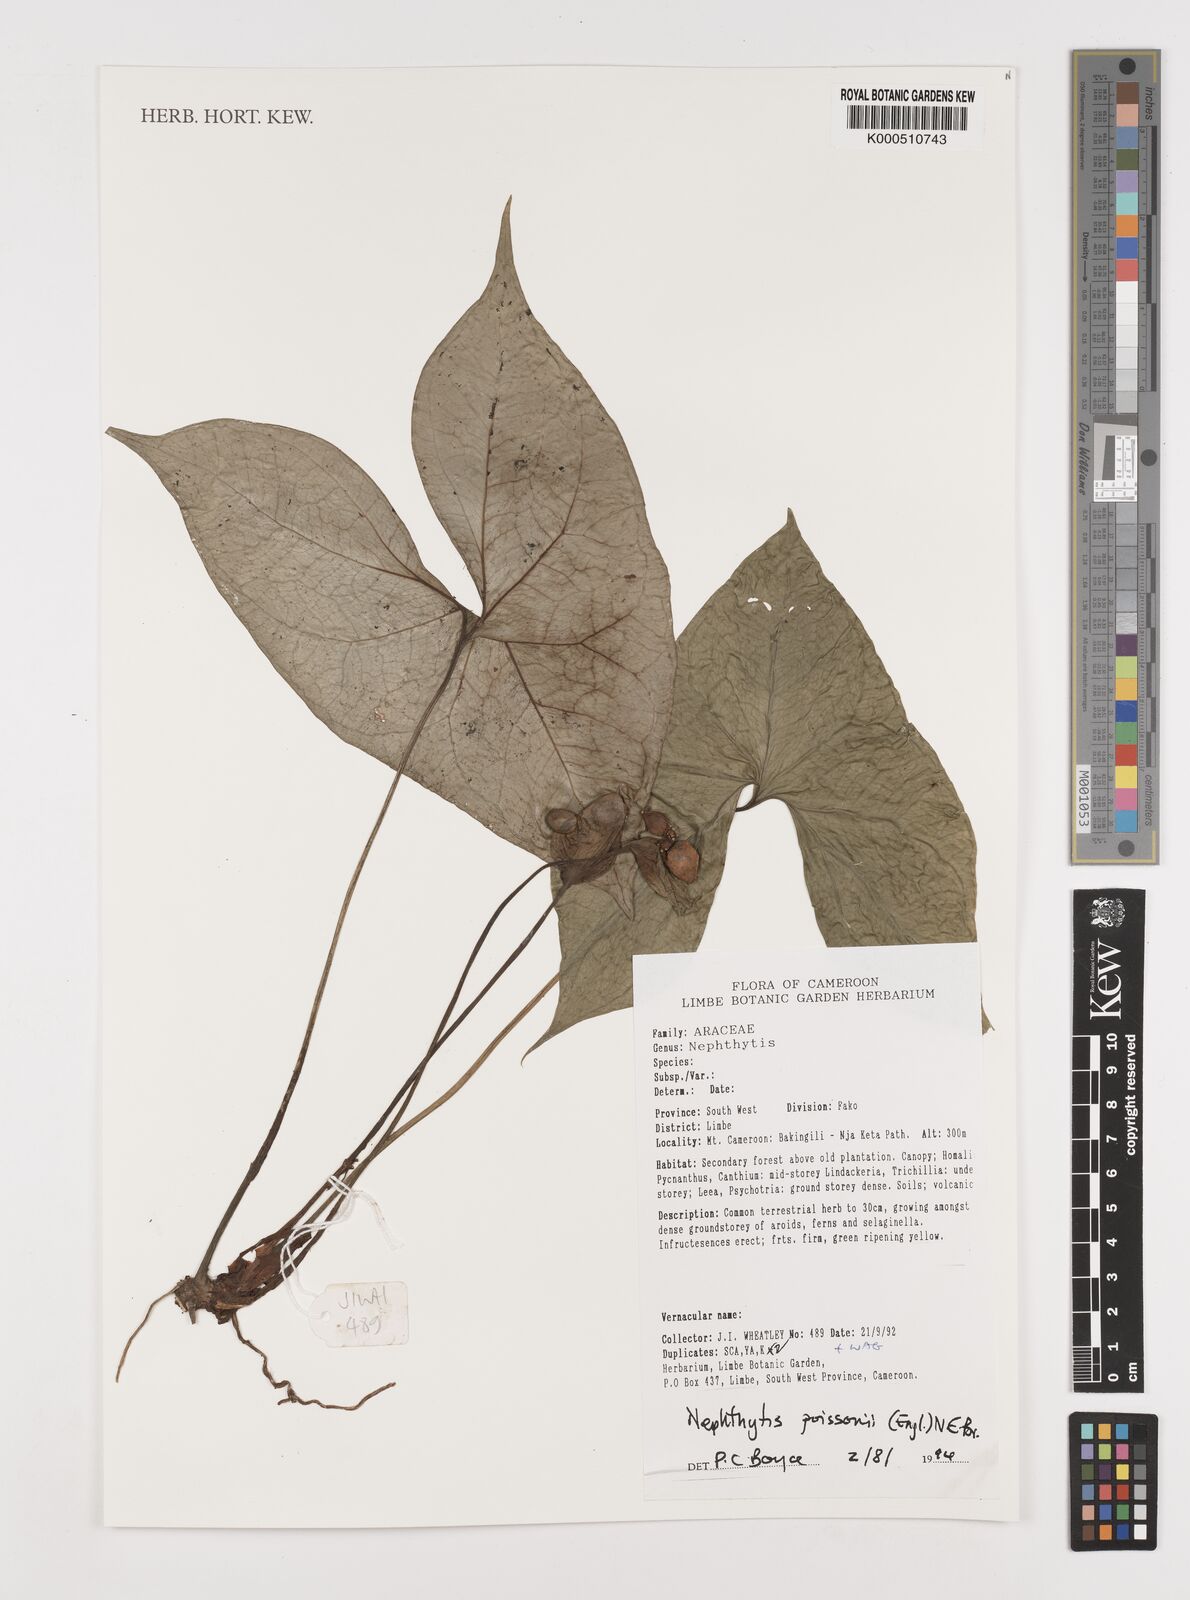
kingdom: Plantae
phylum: Tracheophyta
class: Liliopsida
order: Alismatales
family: Araceae
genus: Nephthytis
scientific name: Nephthytis poissonii
